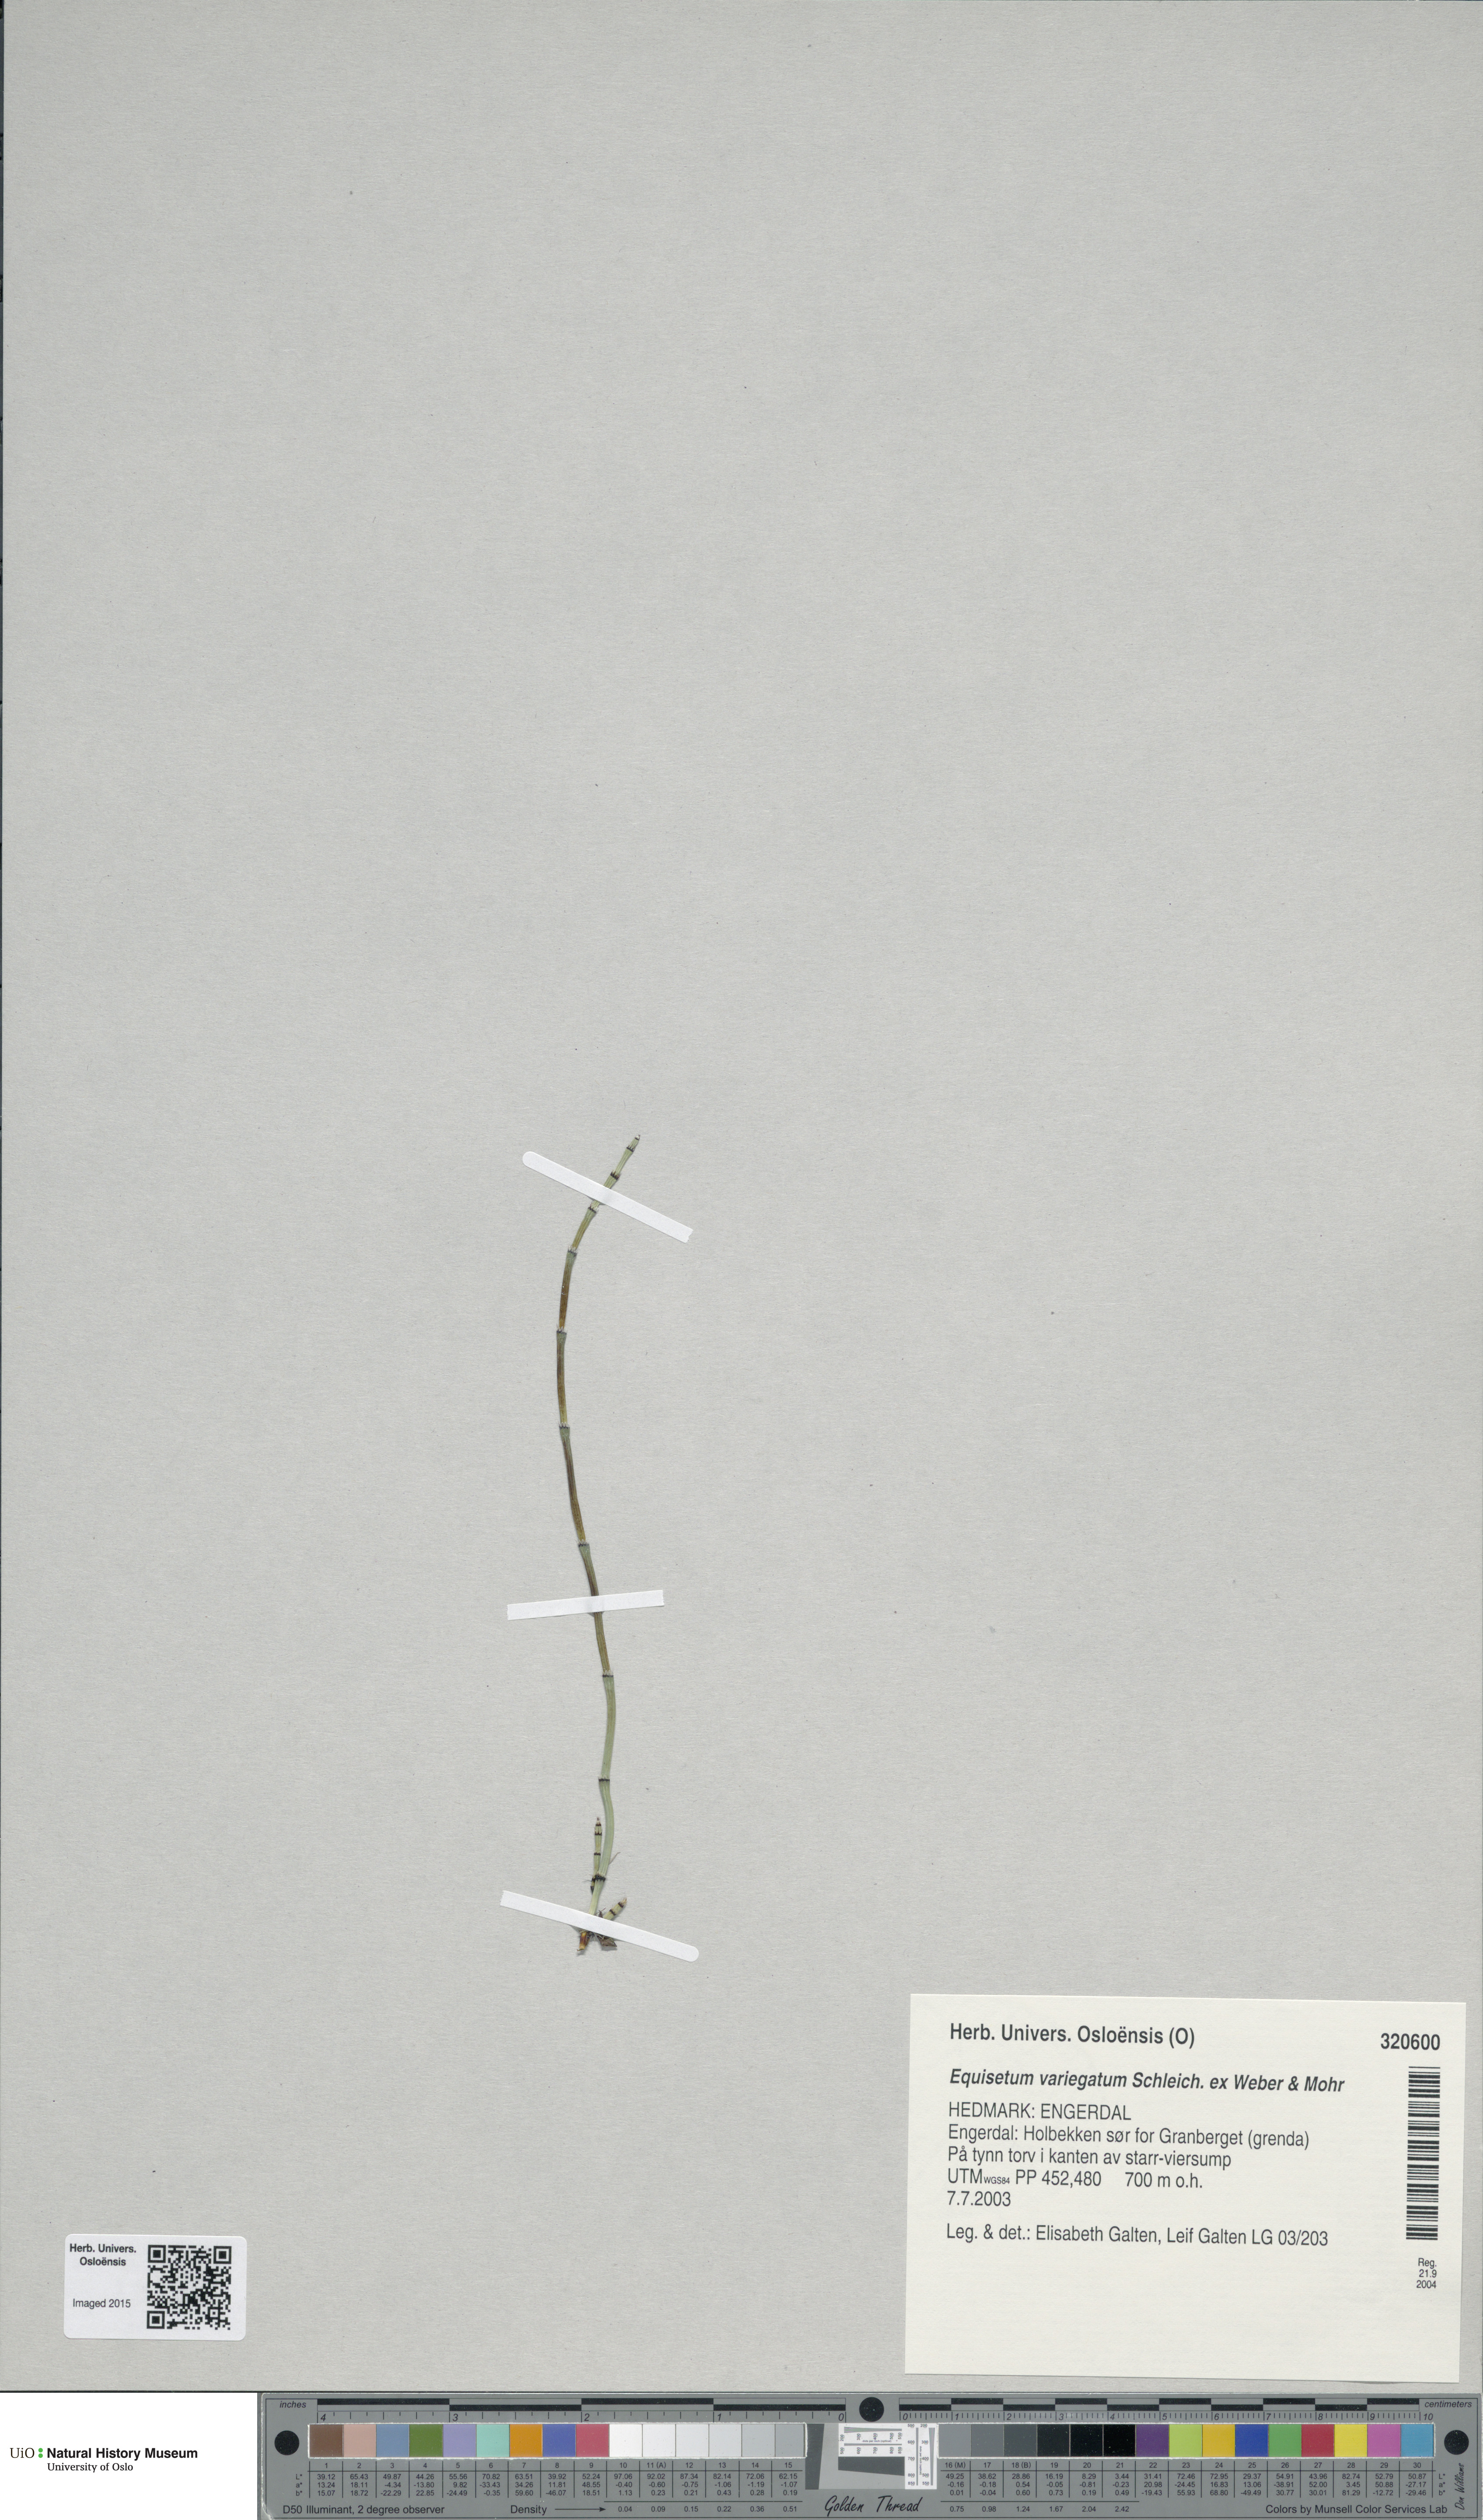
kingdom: Plantae
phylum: Tracheophyta
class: Polypodiopsida
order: Equisetales
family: Equisetaceae
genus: Equisetum
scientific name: Equisetum variegatum
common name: Variegated horsetail
